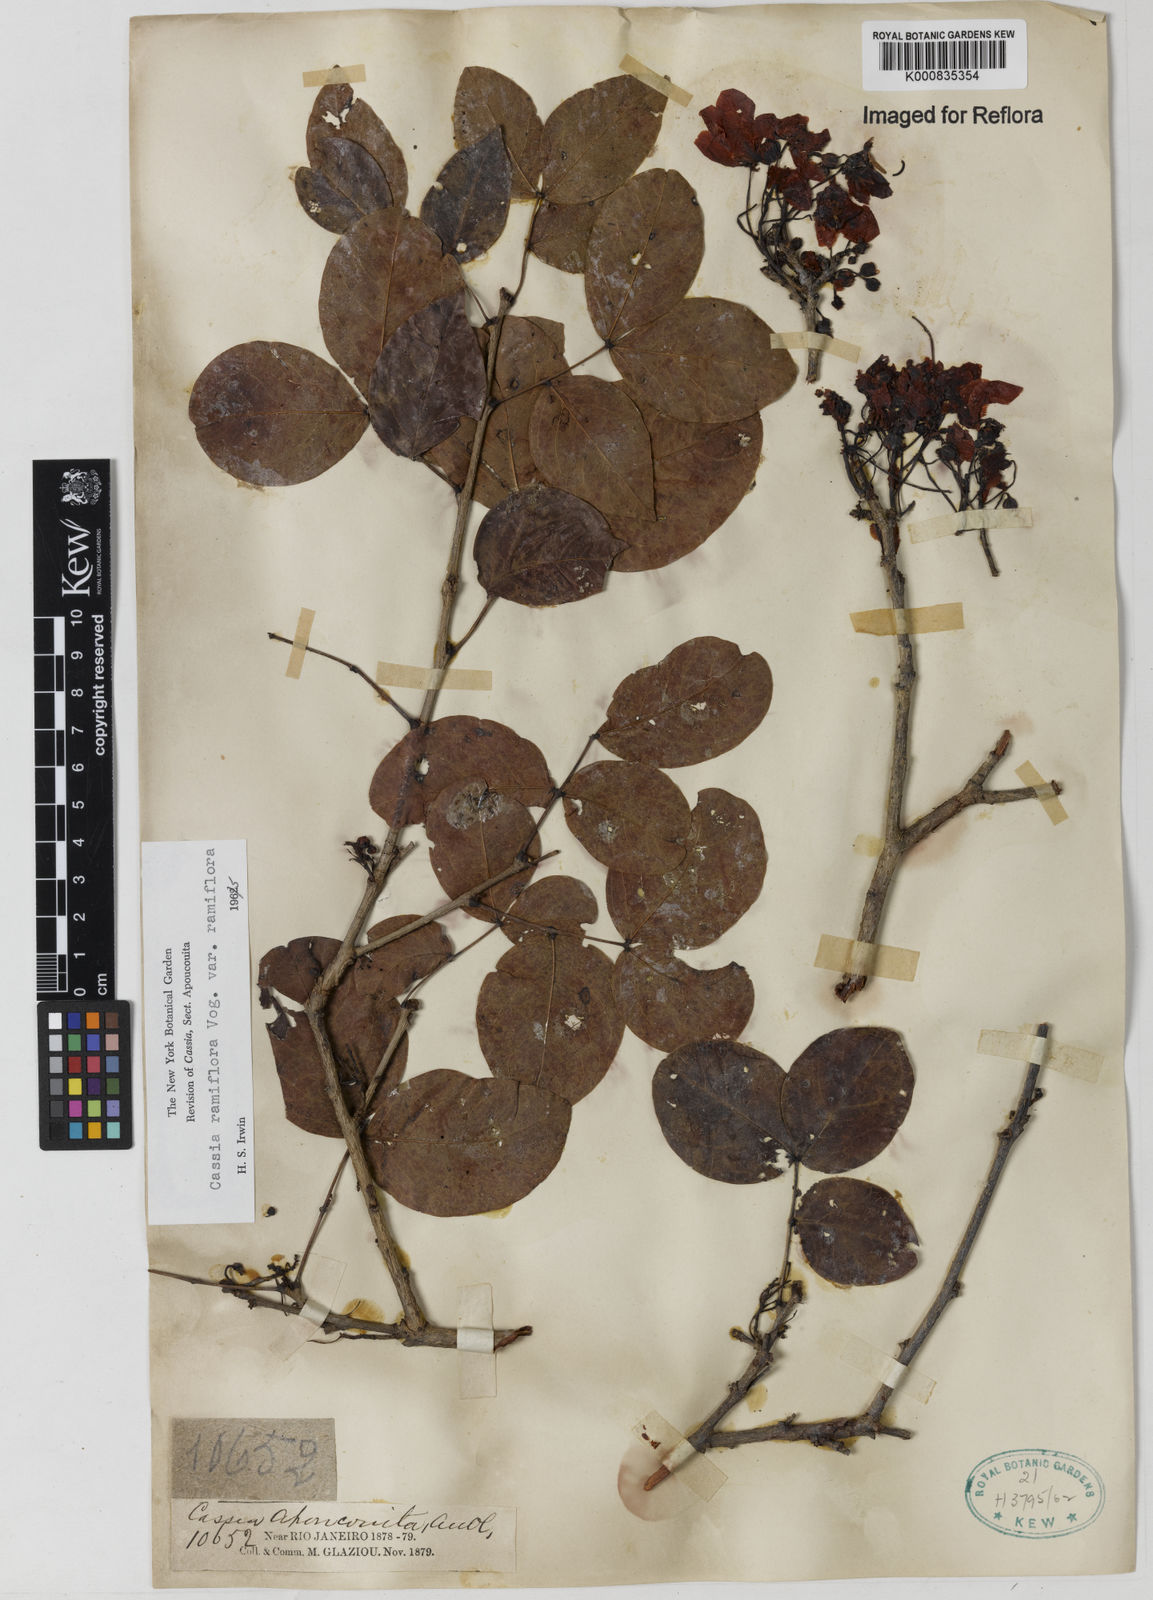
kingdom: Plantae
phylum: Tracheophyta
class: Magnoliopsida
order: Fabales
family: Fabaceae
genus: Chamaecrista
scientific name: Chamaecrista ensiformis
